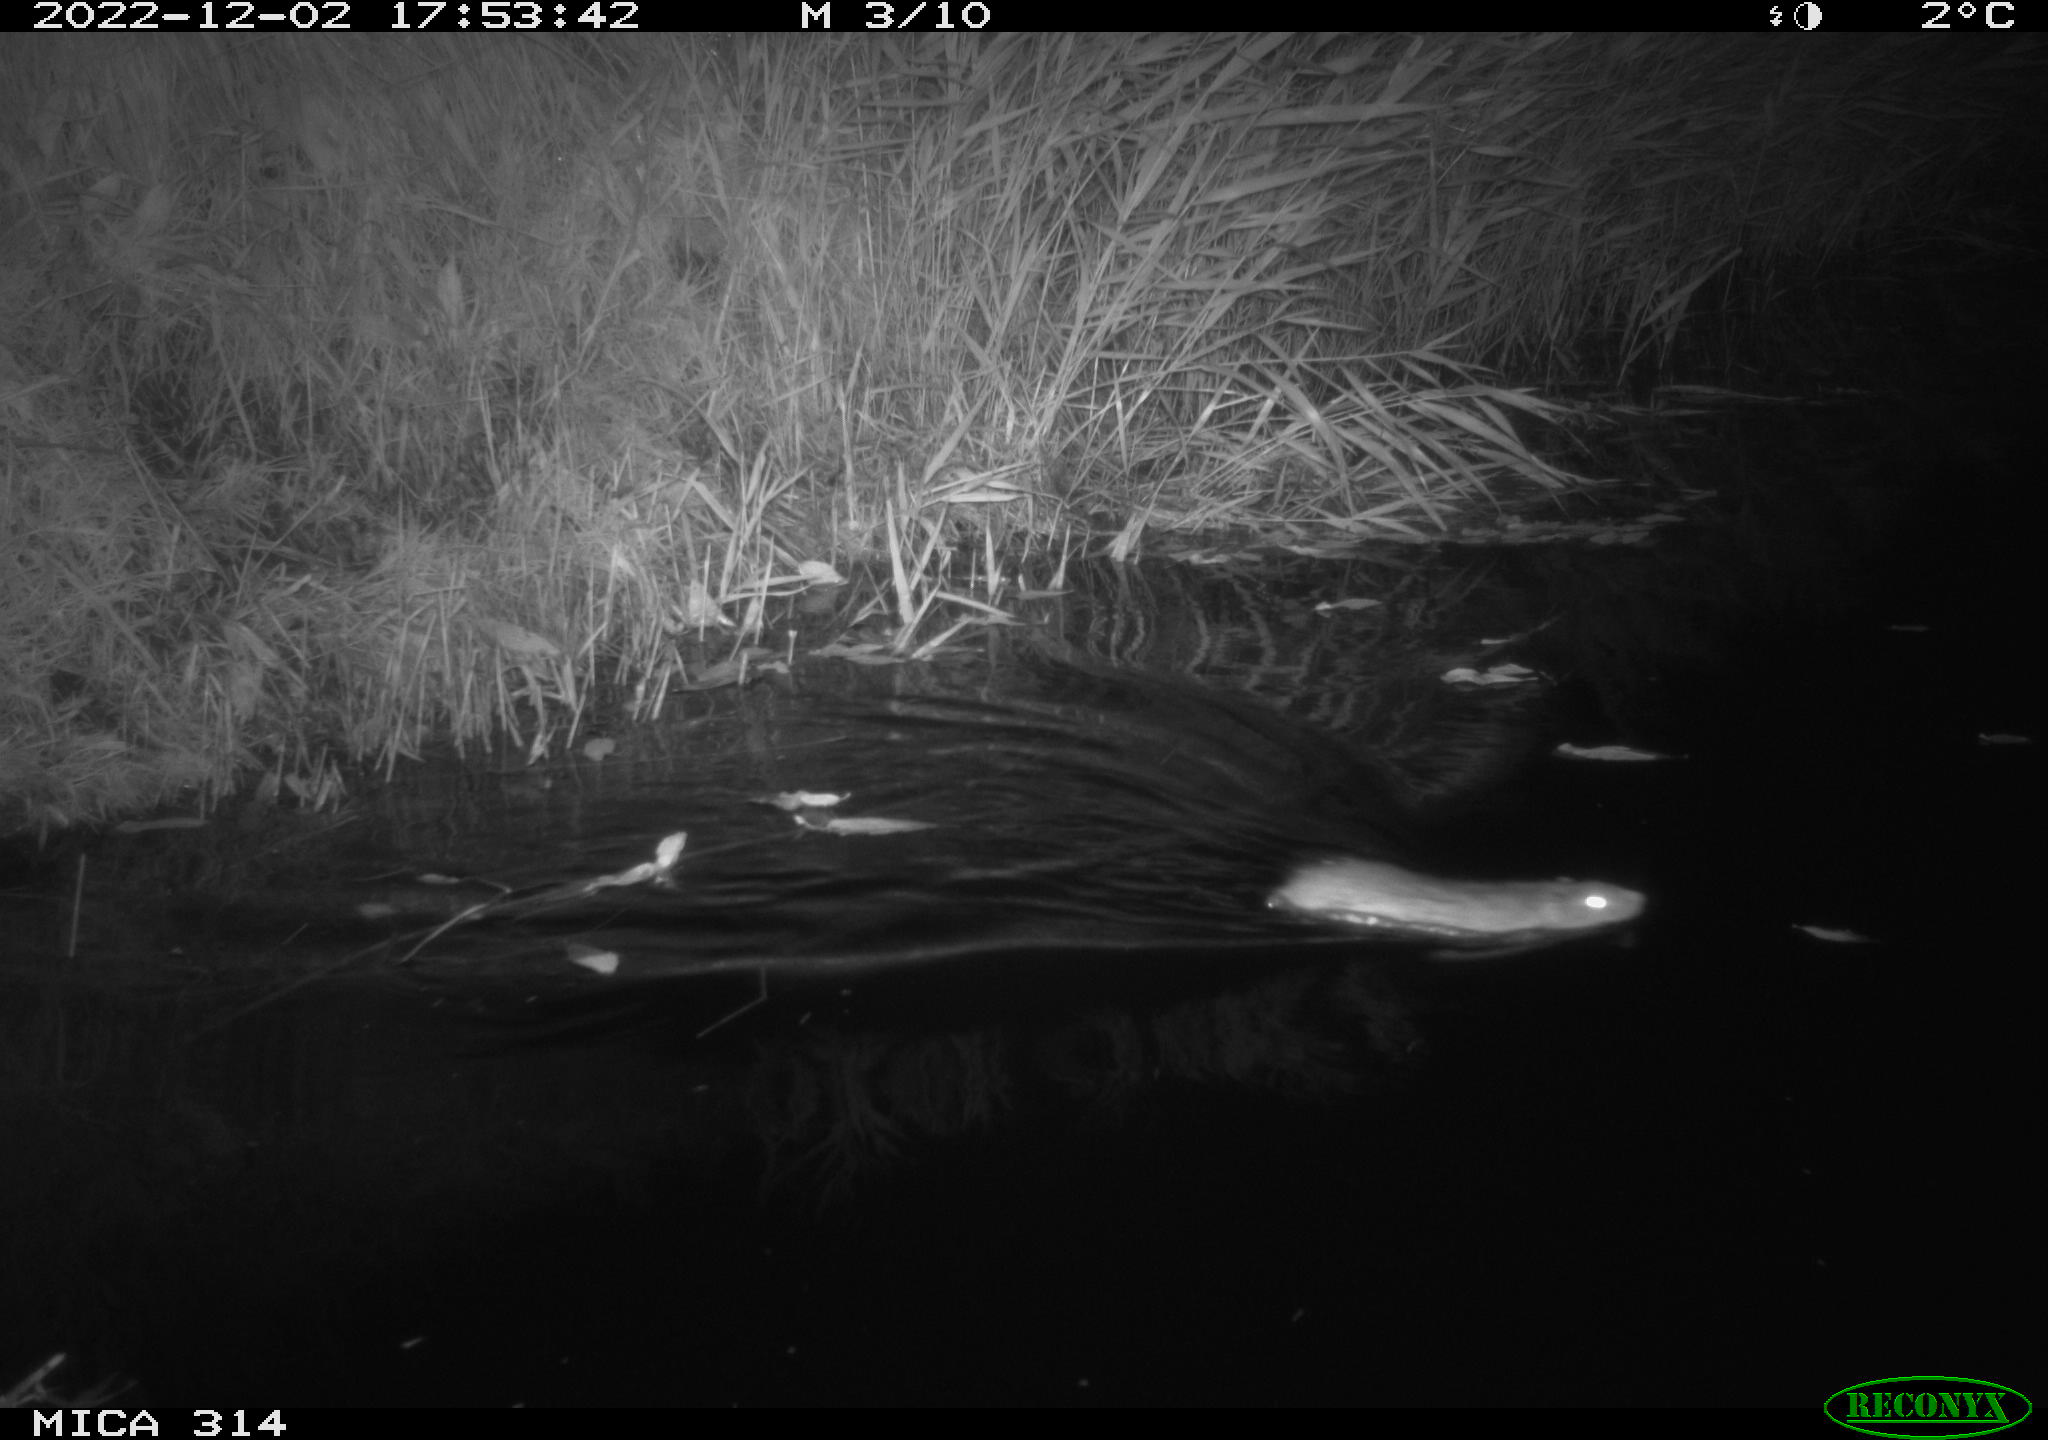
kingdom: Animalia
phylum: Chordata
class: Mammalia
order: Rodentia
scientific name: Rodentia
